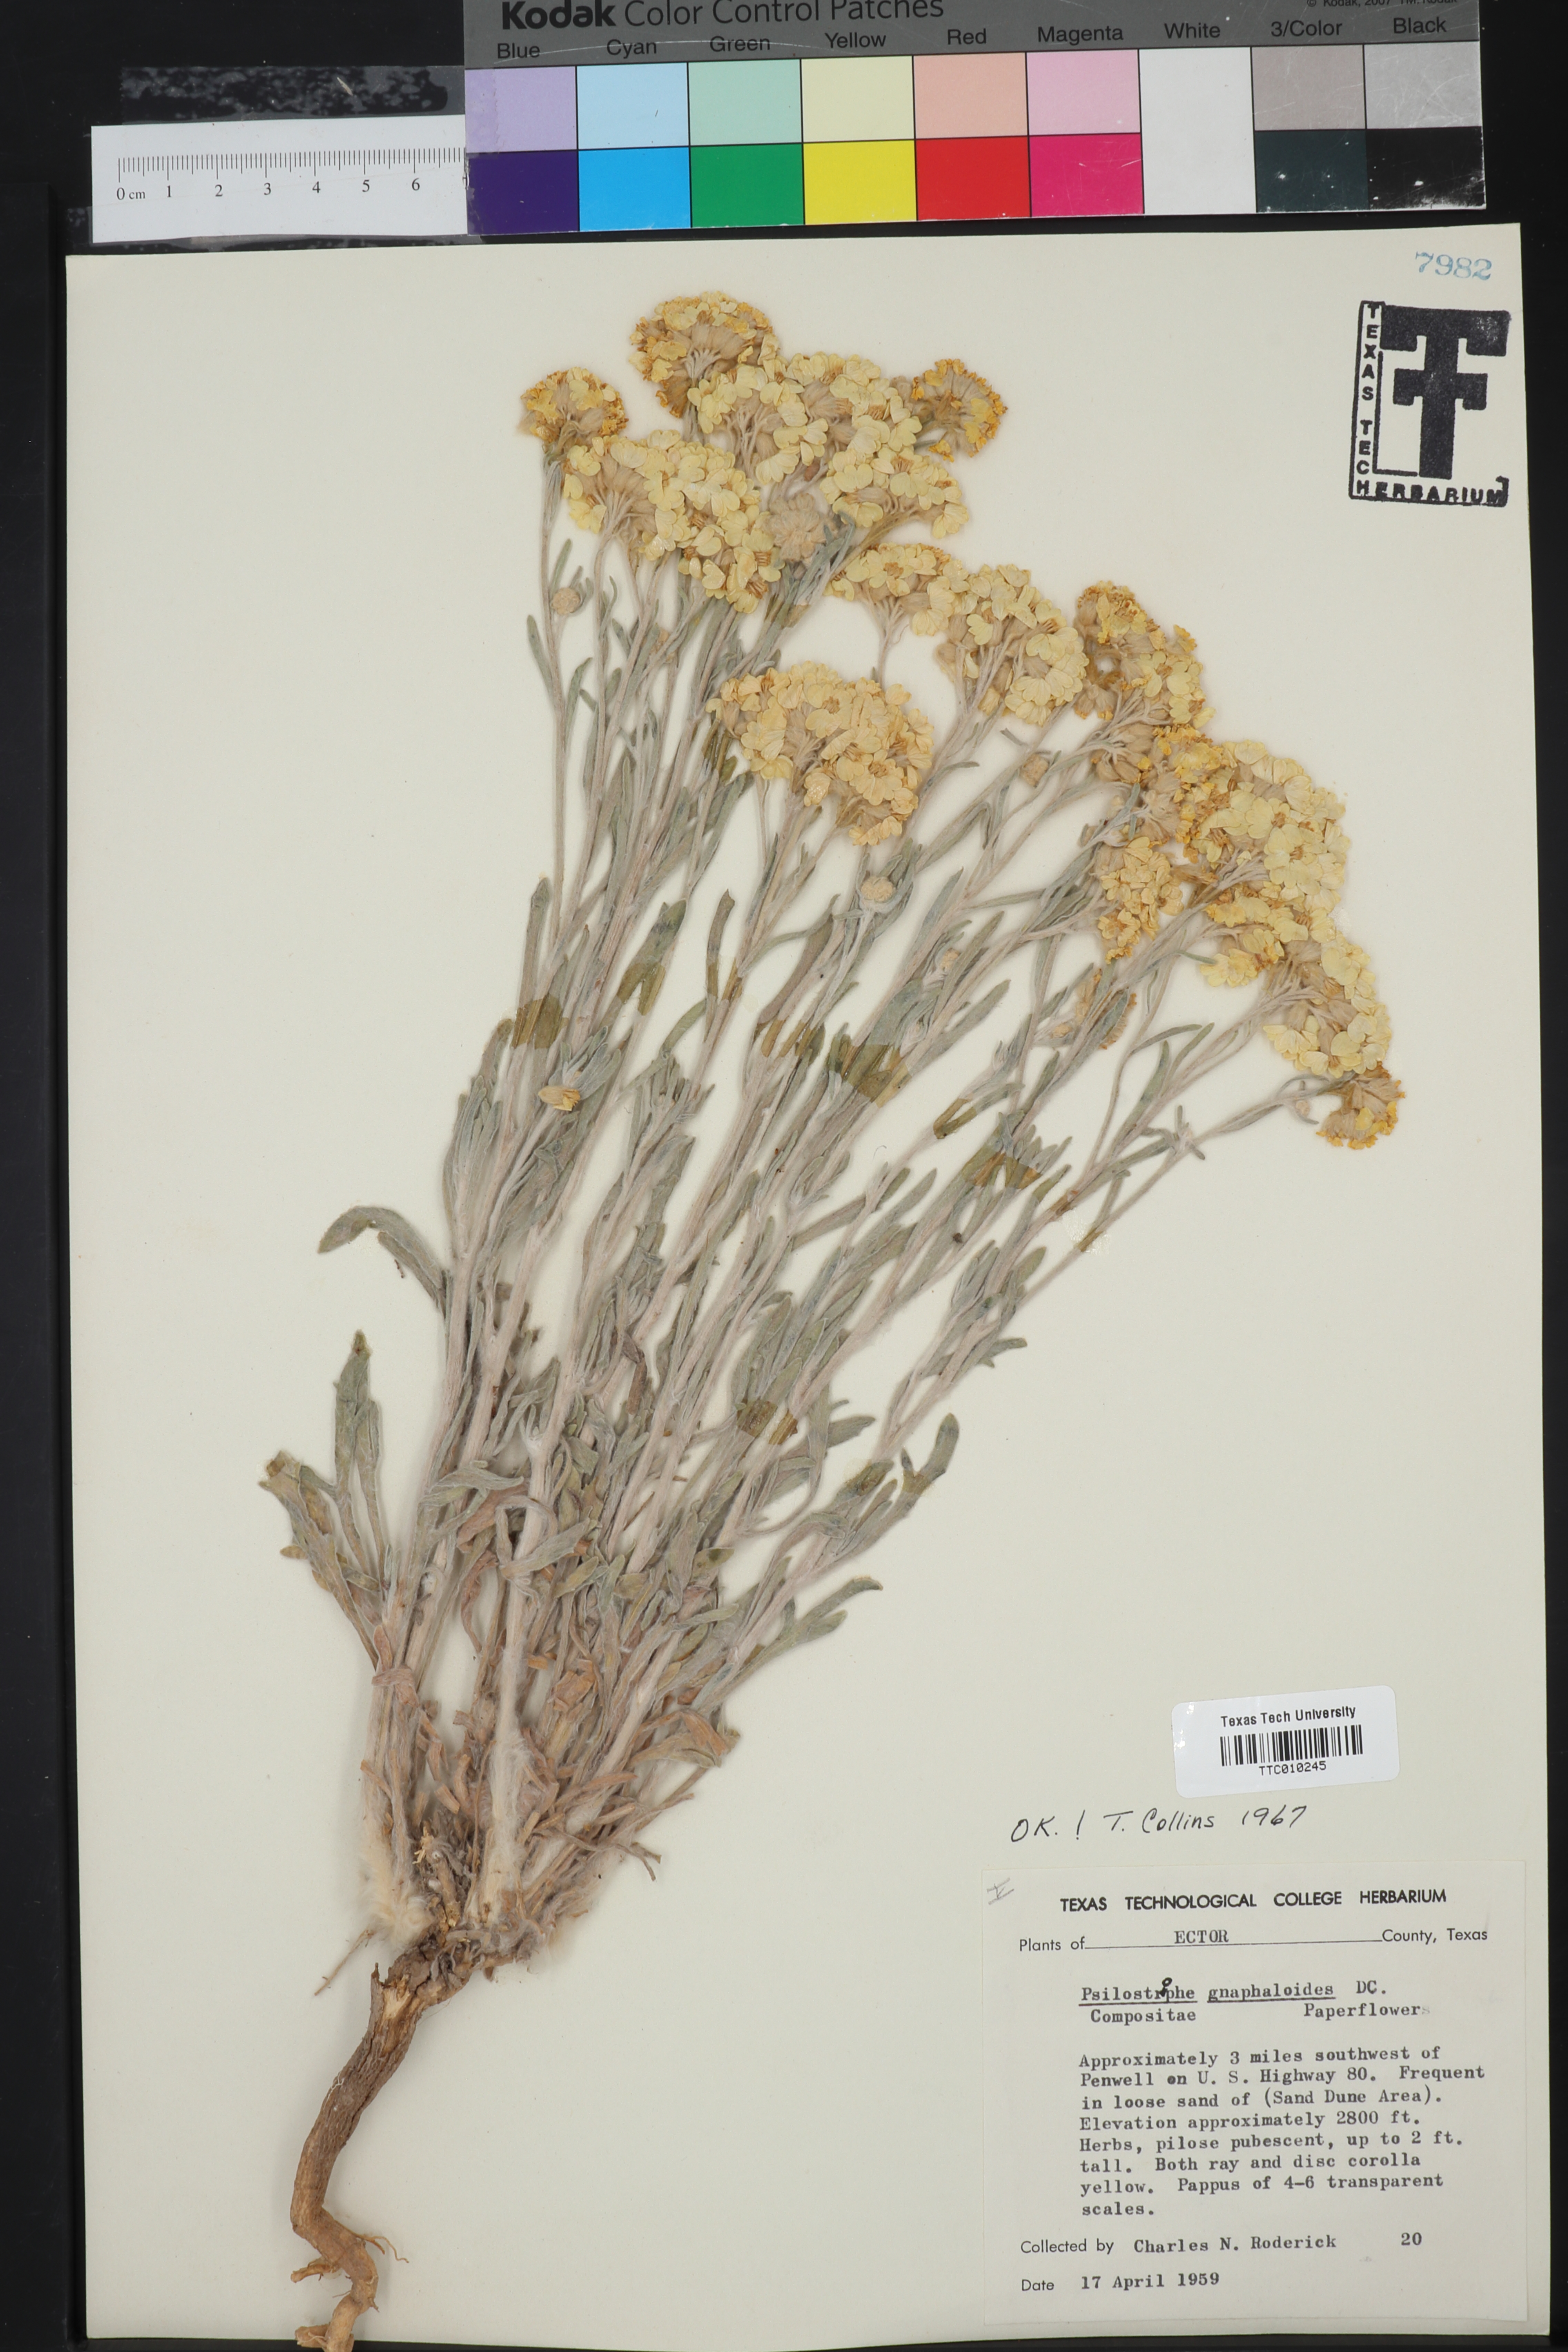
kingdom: Plantae
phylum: Tracheophyta
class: Magnoliopsida
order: Asterales
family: Asteraceae
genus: Psilostrophe
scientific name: Psilostrophe gnaphalioides
